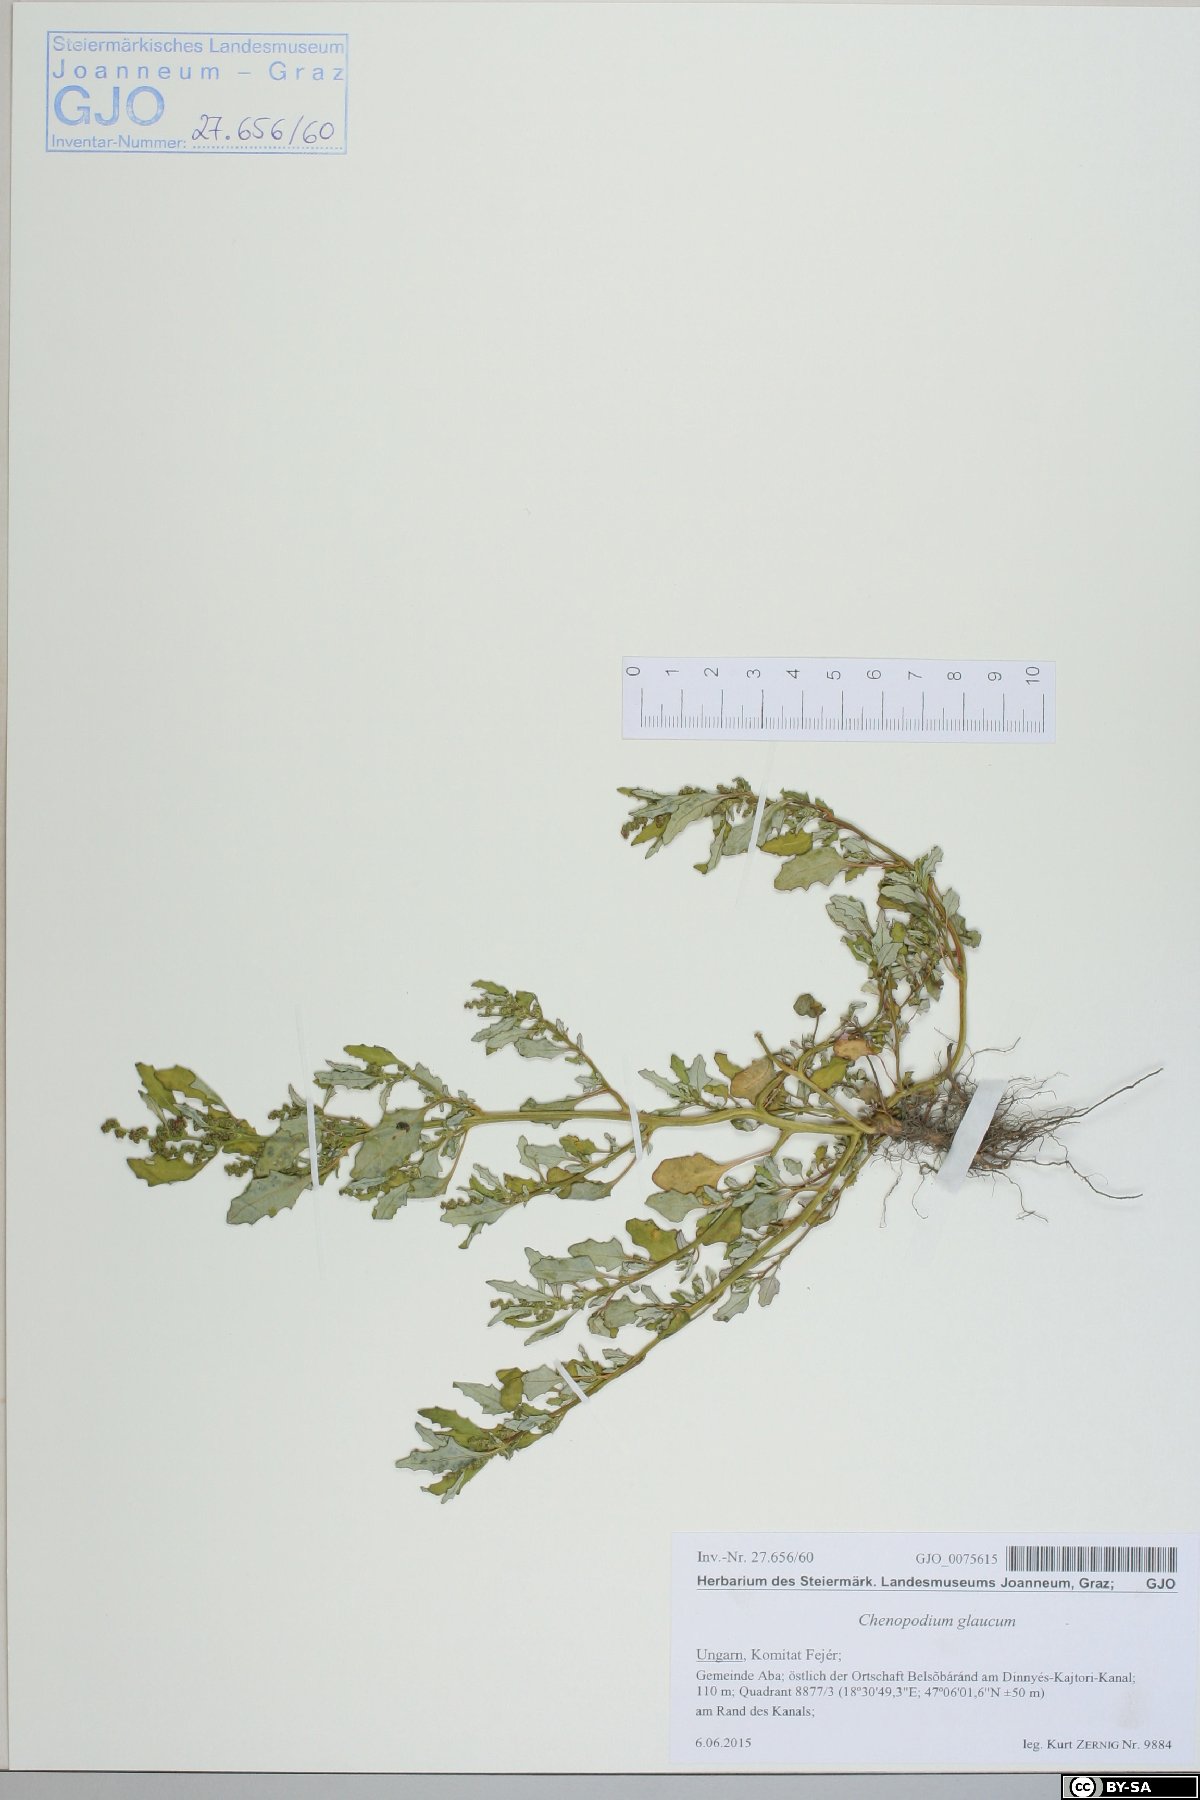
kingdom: Plantae
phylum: Tracheophyta
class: Magnoliopsida
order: Caryophyllales
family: Amaranthaceae
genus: Oxybasis
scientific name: Oxybasis glauca
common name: Glaucous goosefoot
